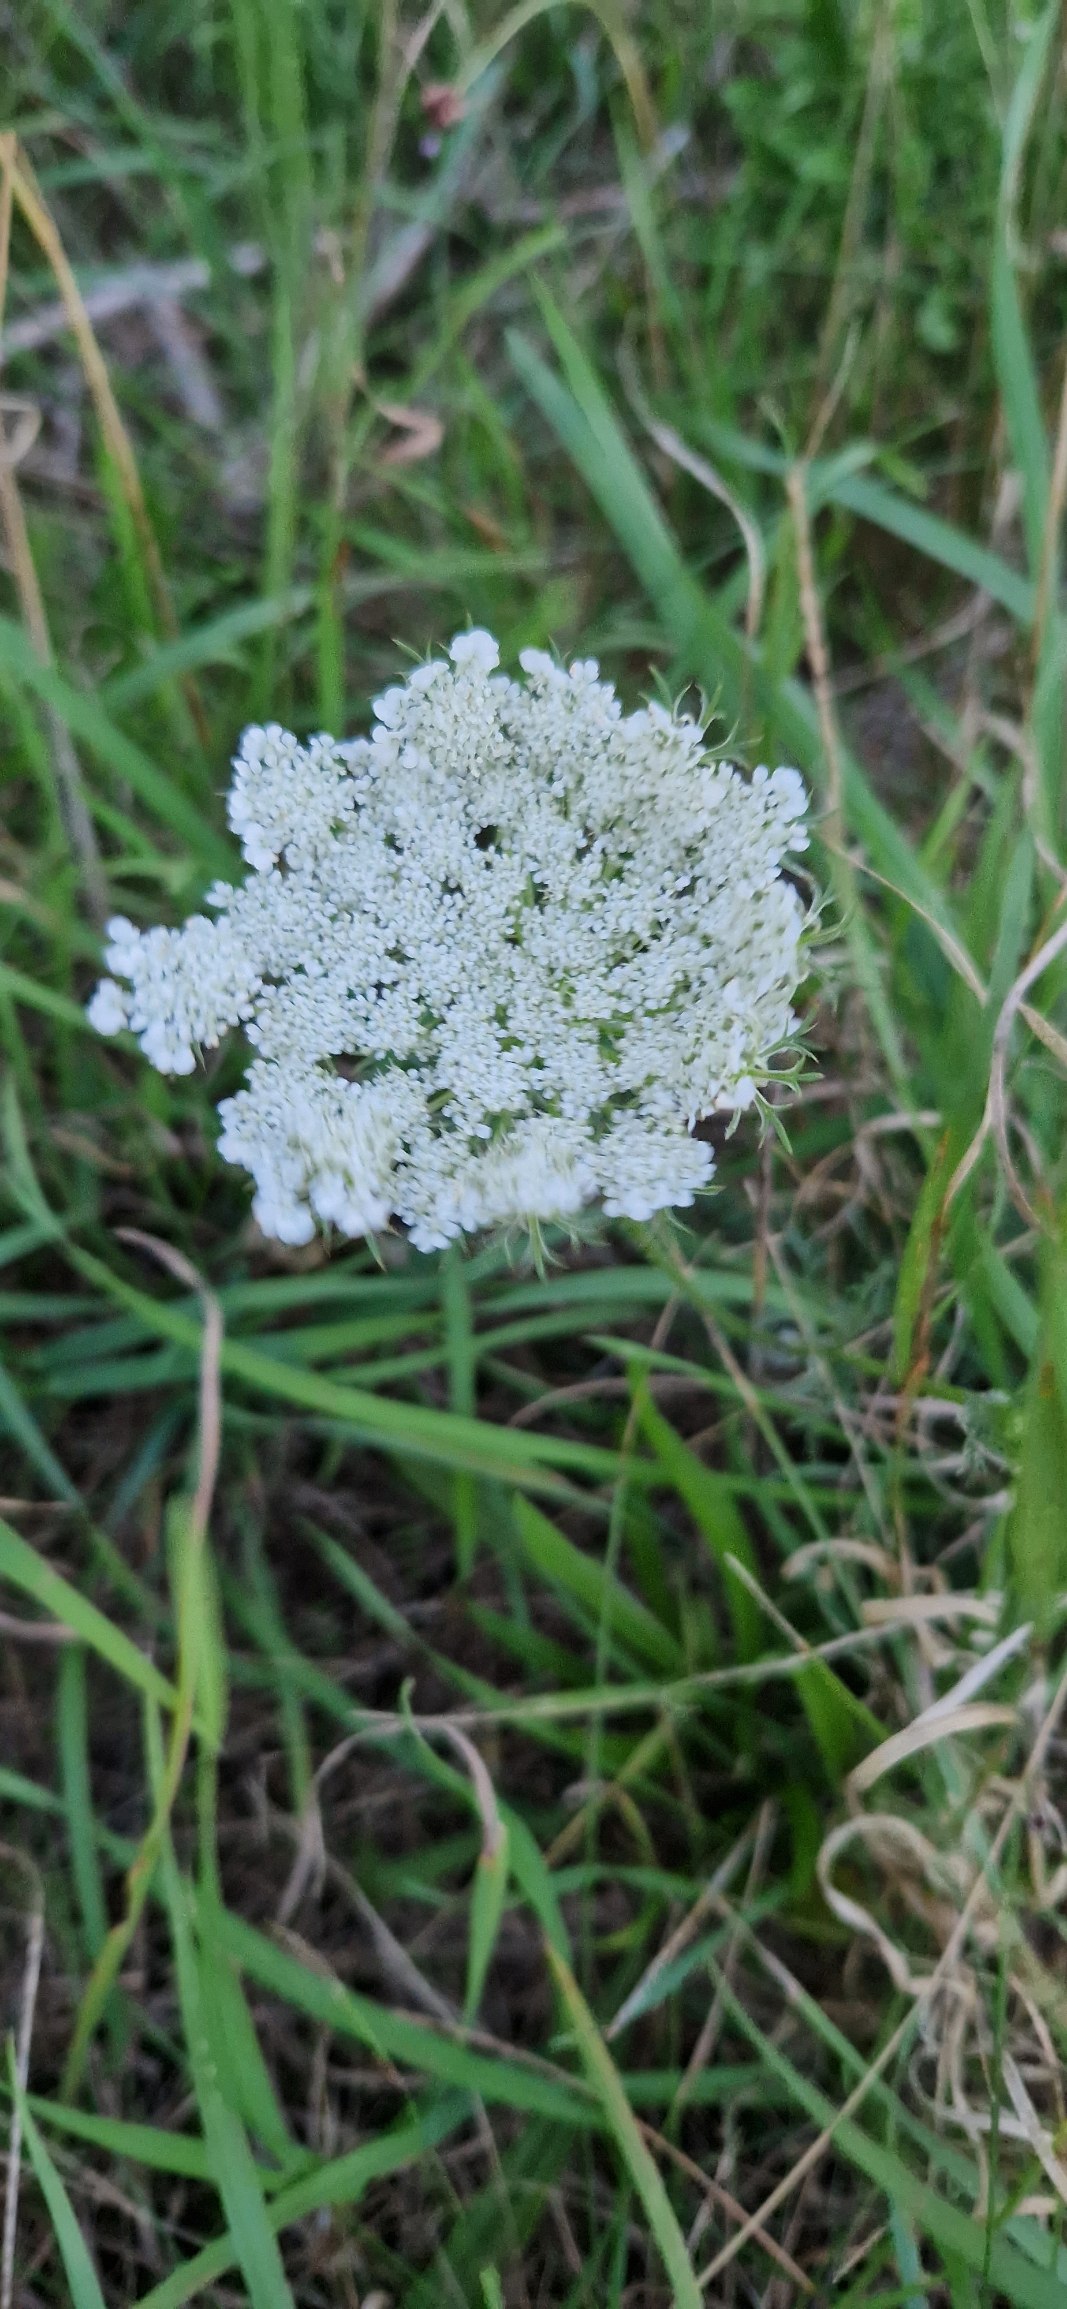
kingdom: Plantae
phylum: Tracheophyta
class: Magnoliopsida
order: Apiales
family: Apiaceae
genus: Daucus
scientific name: Daucus carota
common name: Gulerod
